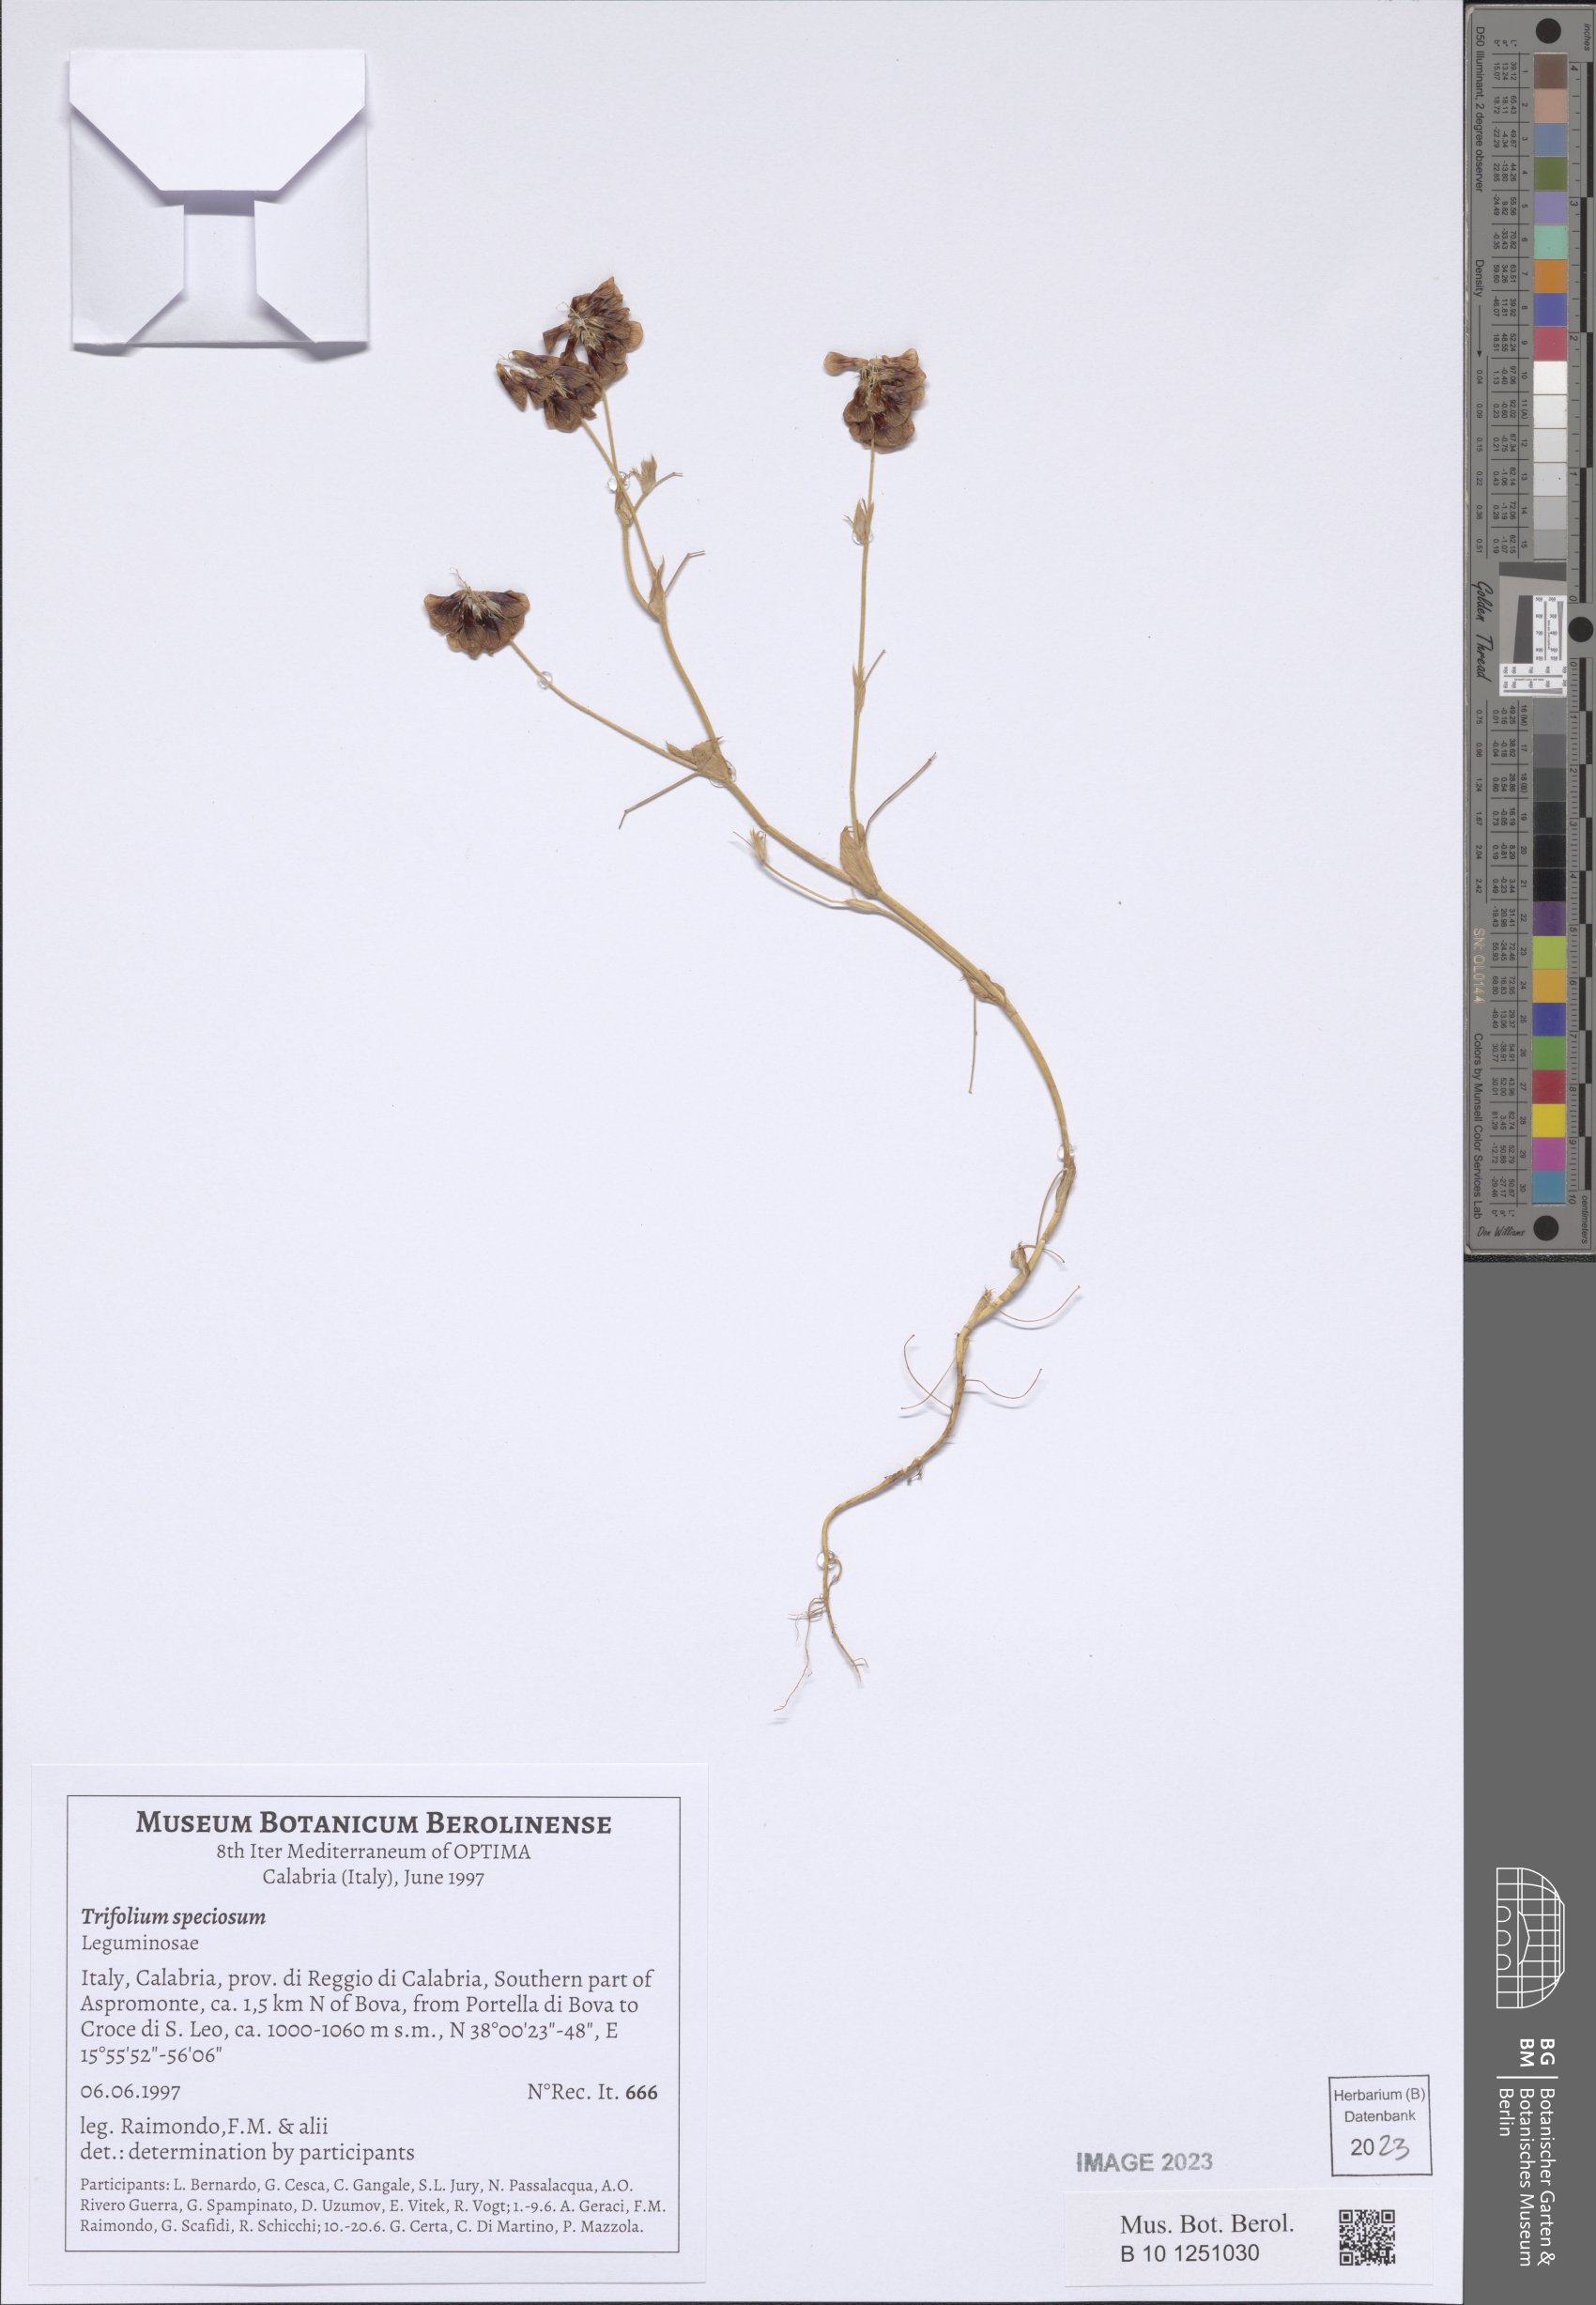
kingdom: Plantae
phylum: Tracheophyta
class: Magnoliopsida
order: Fabales
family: Fabaceae
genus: Trifolium
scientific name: Trifolium grandiflorum
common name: Large-flower hop clover
